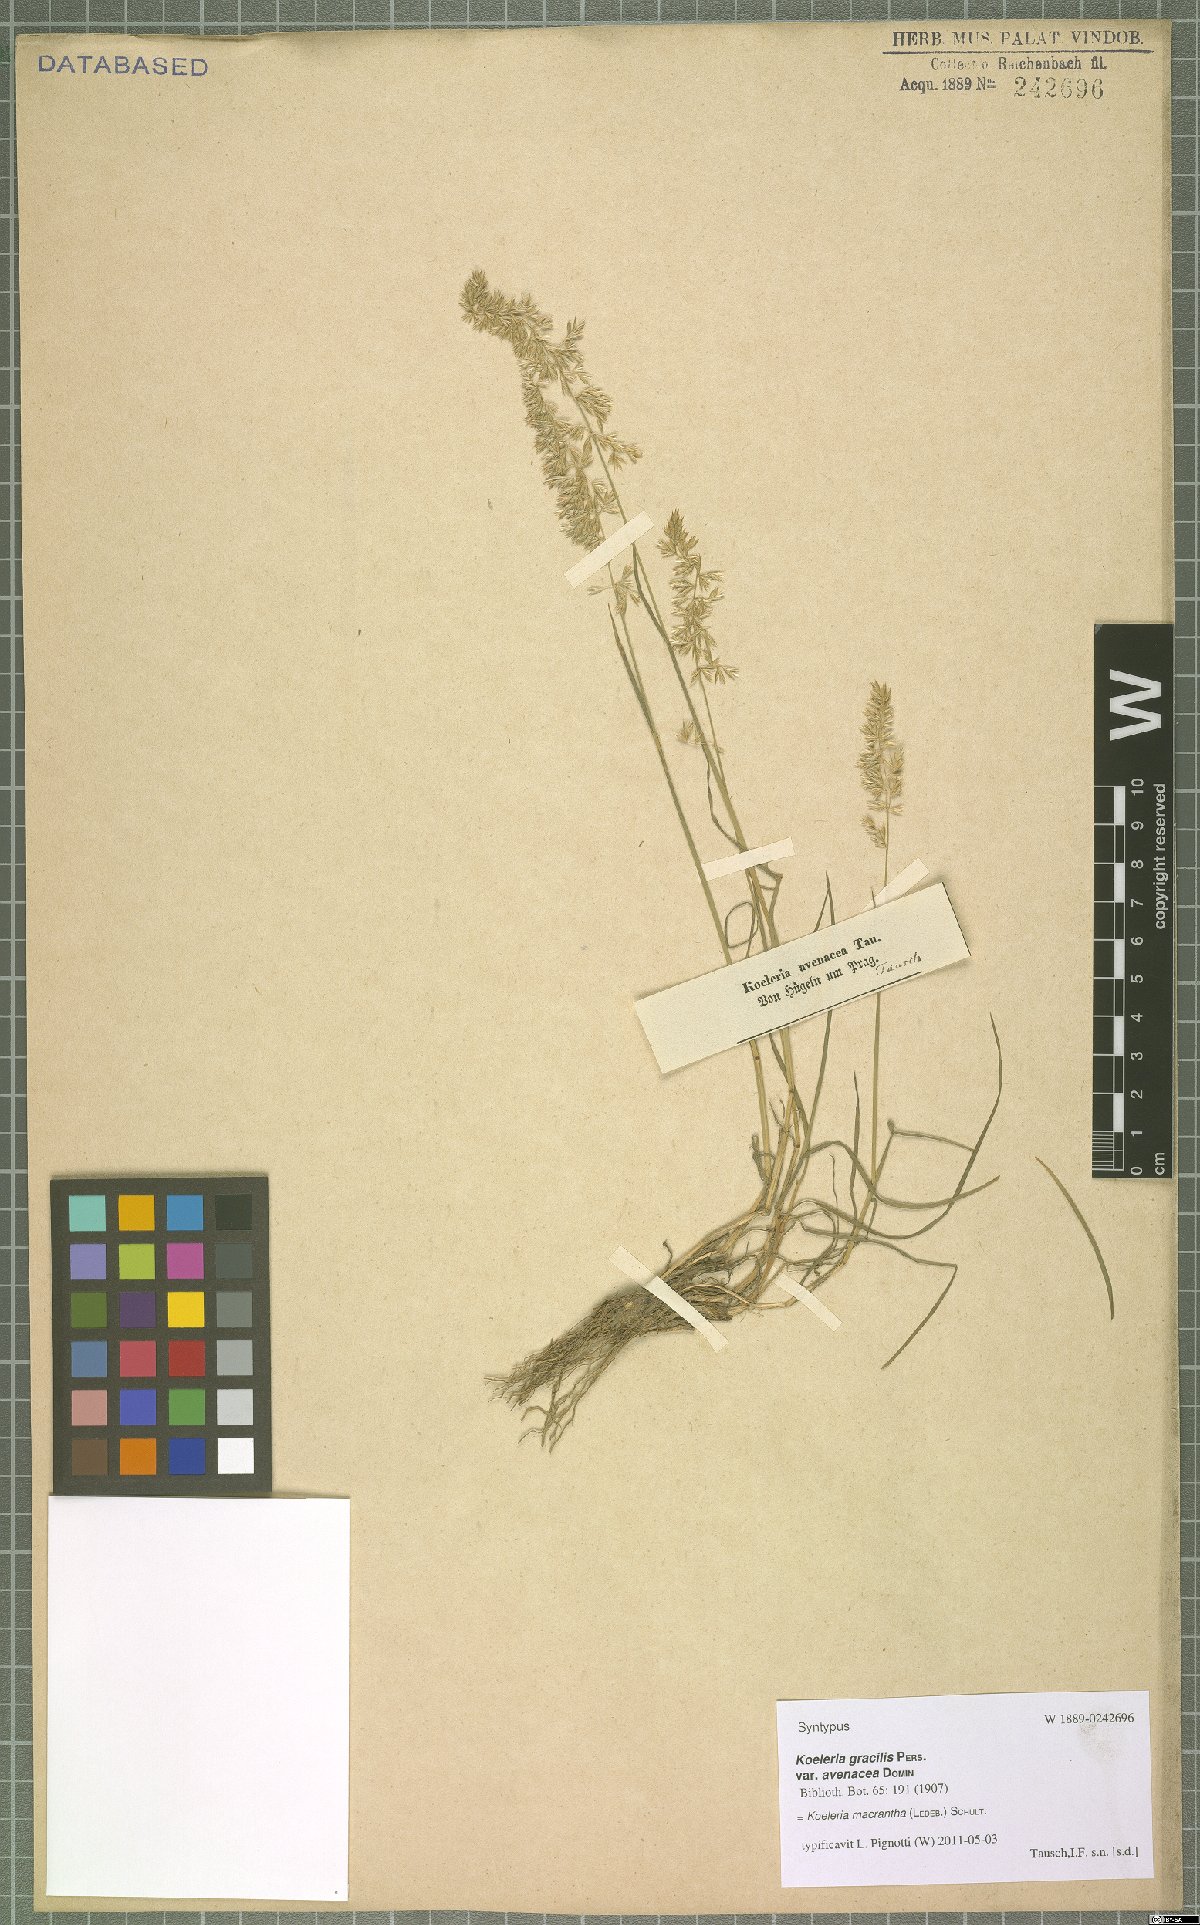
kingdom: Plantae
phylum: Tracheophyta
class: Liliopsida
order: Poales
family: Poaceae
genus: Koeleria
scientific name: Koeleria macrantha
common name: Crested hair-grass
